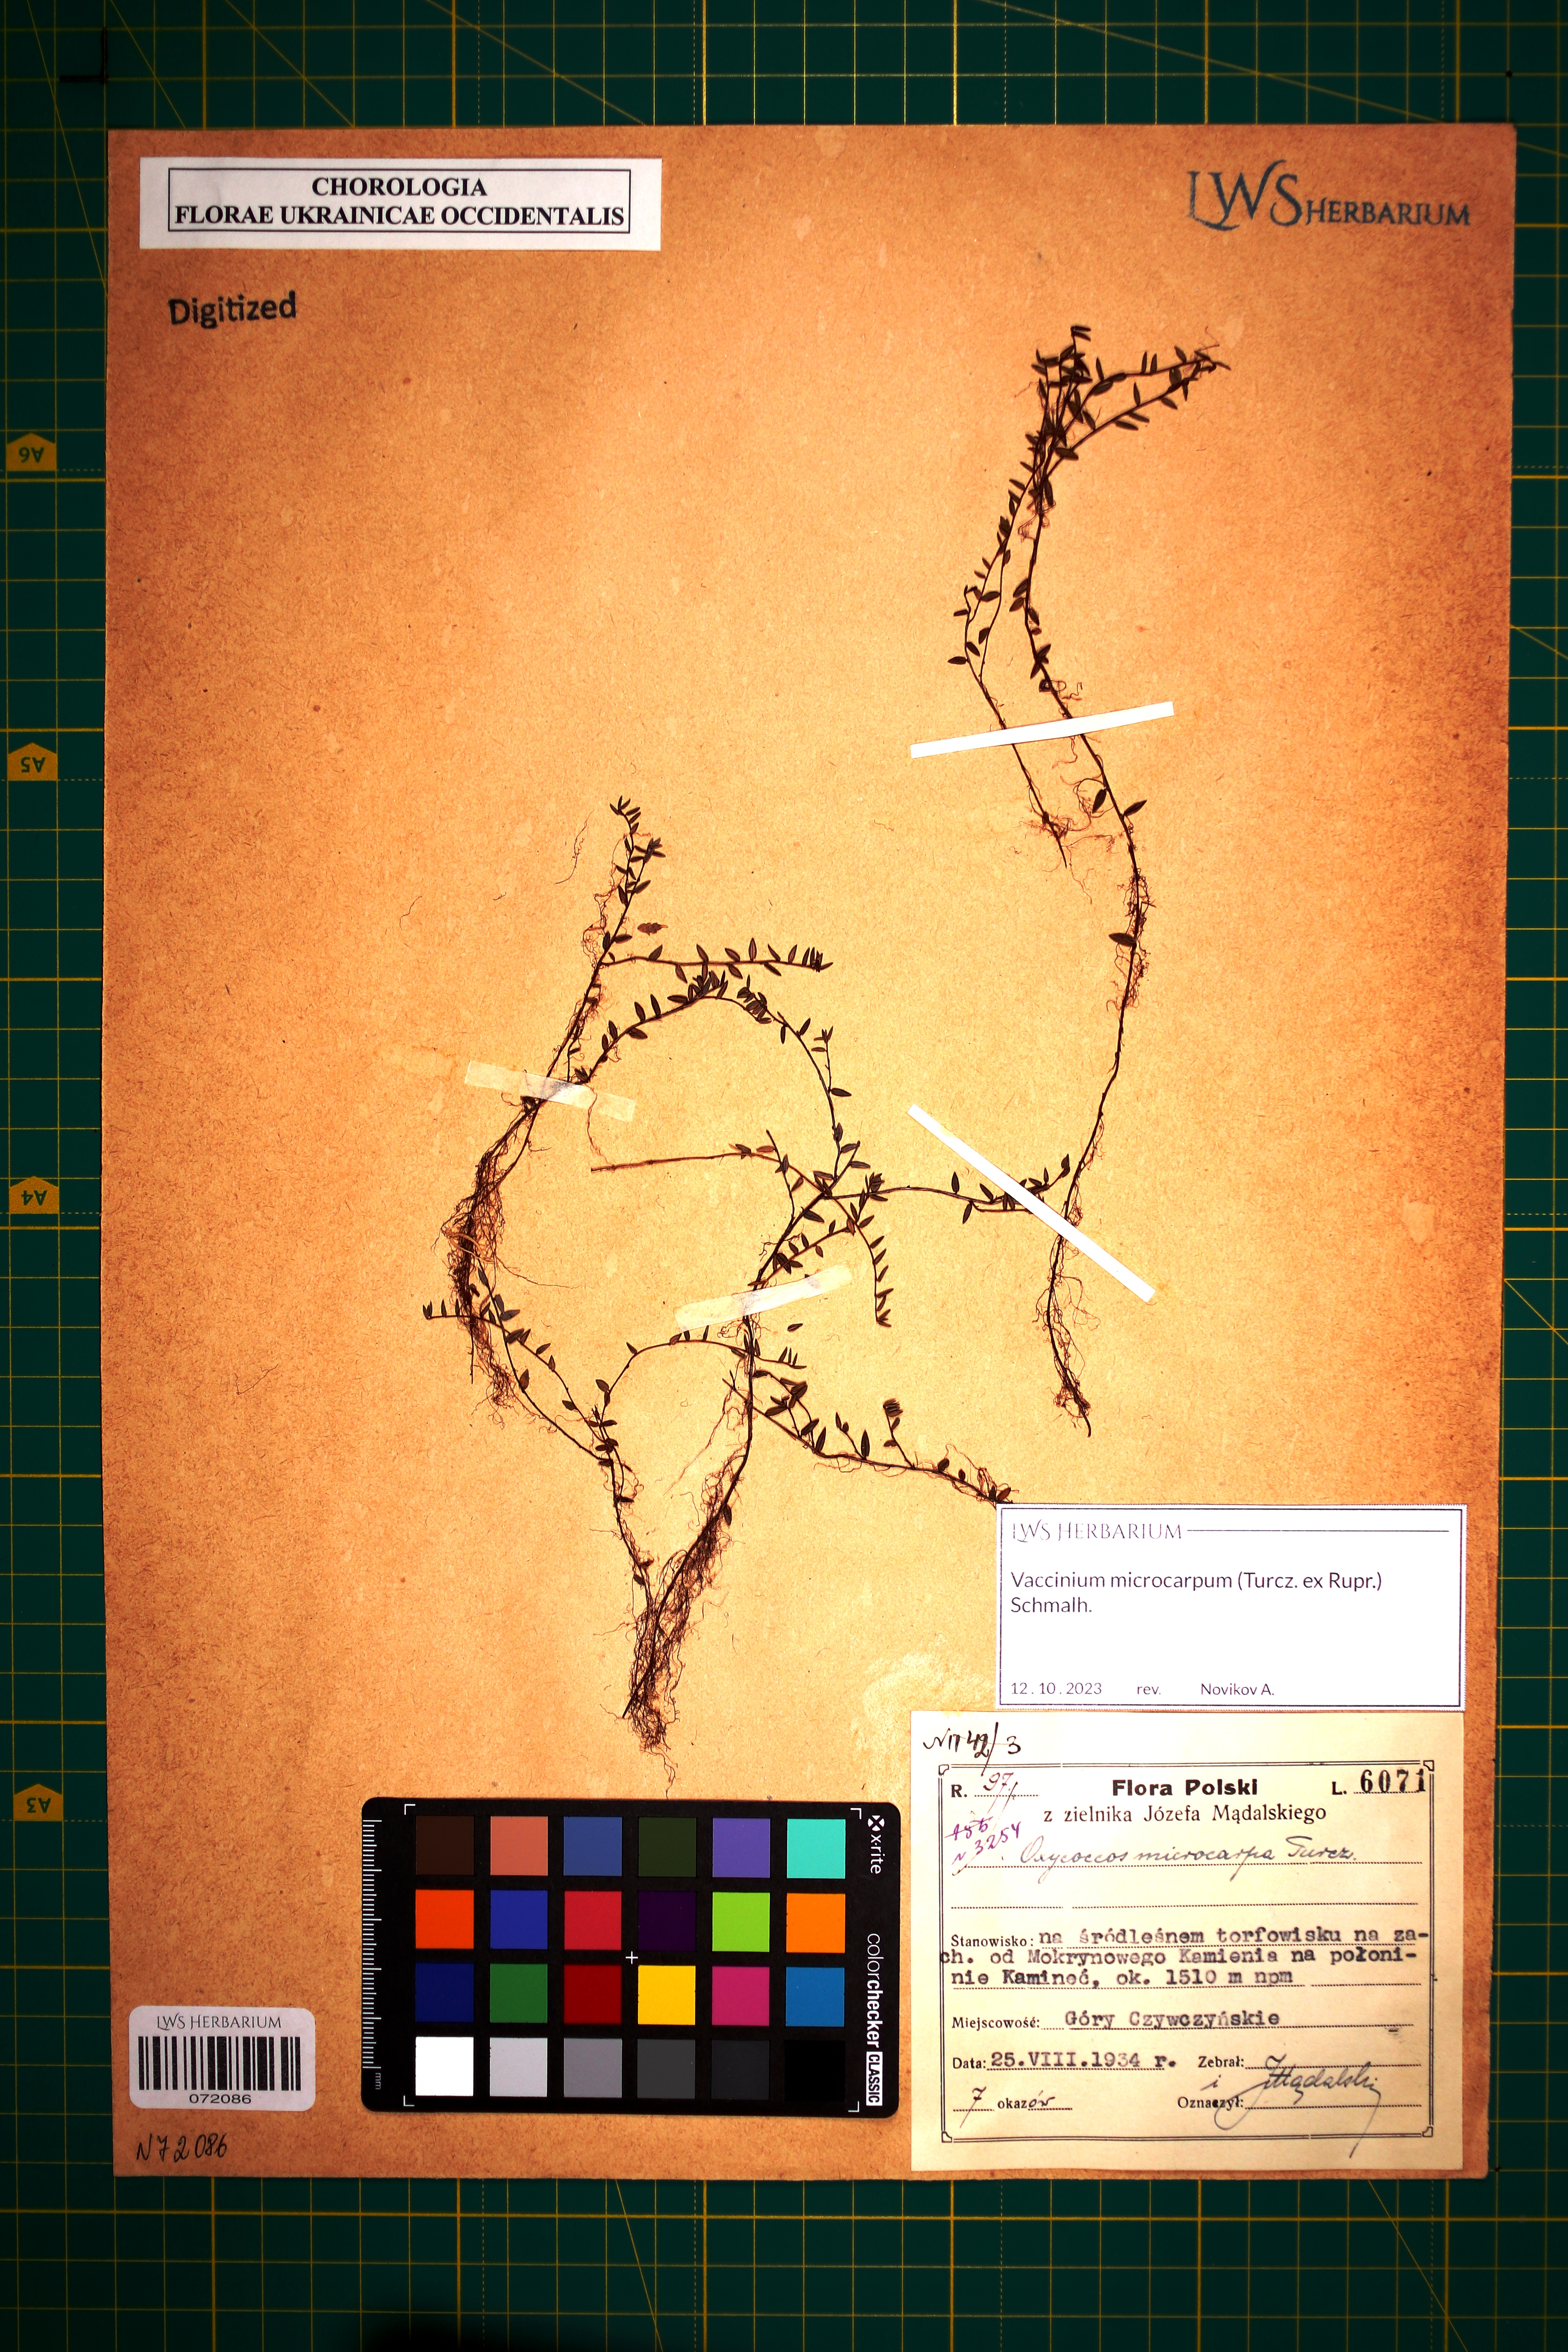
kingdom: Plantae
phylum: Tracheophyta
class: Magnoliopsida
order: Ericales
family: Ericaceae
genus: Vaccinium
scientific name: Vaccinium microcarpum
